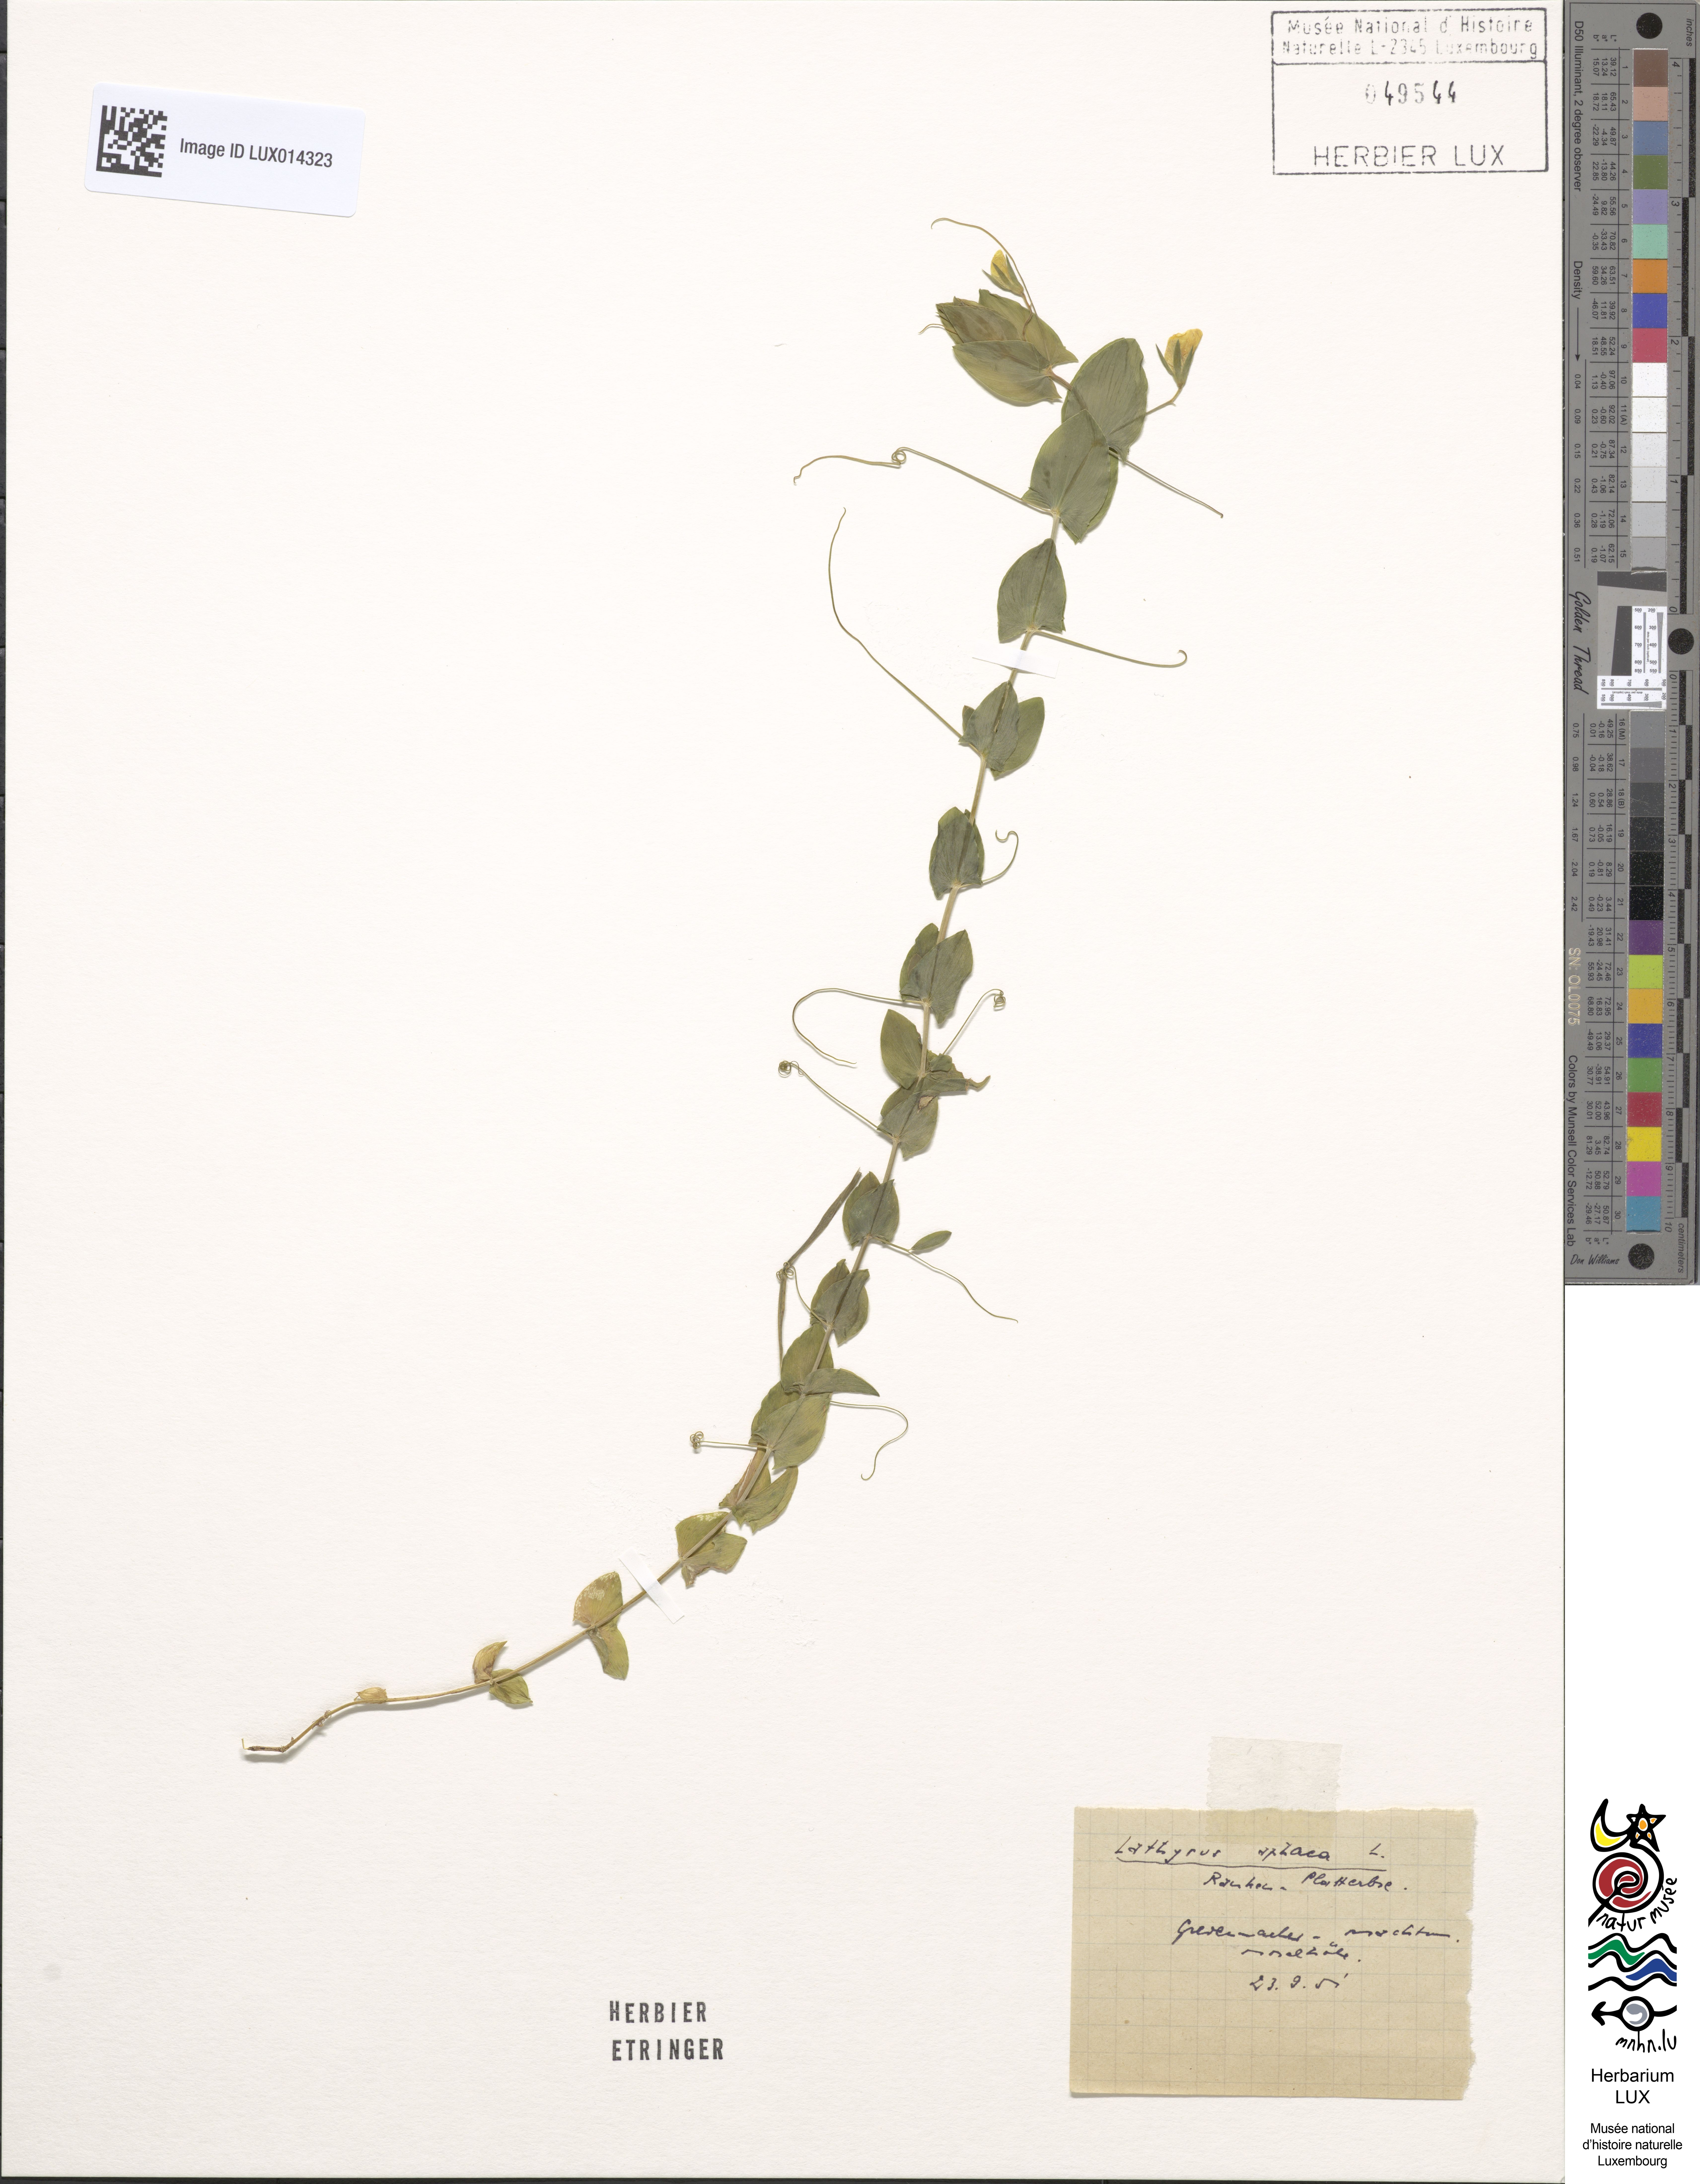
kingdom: Plantae
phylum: Tracheophyta
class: Magnoliopsida
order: Fabales
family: Fabaceae
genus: Lathyrus
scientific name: Lathyrus aphaca
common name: Yellow vetchling
